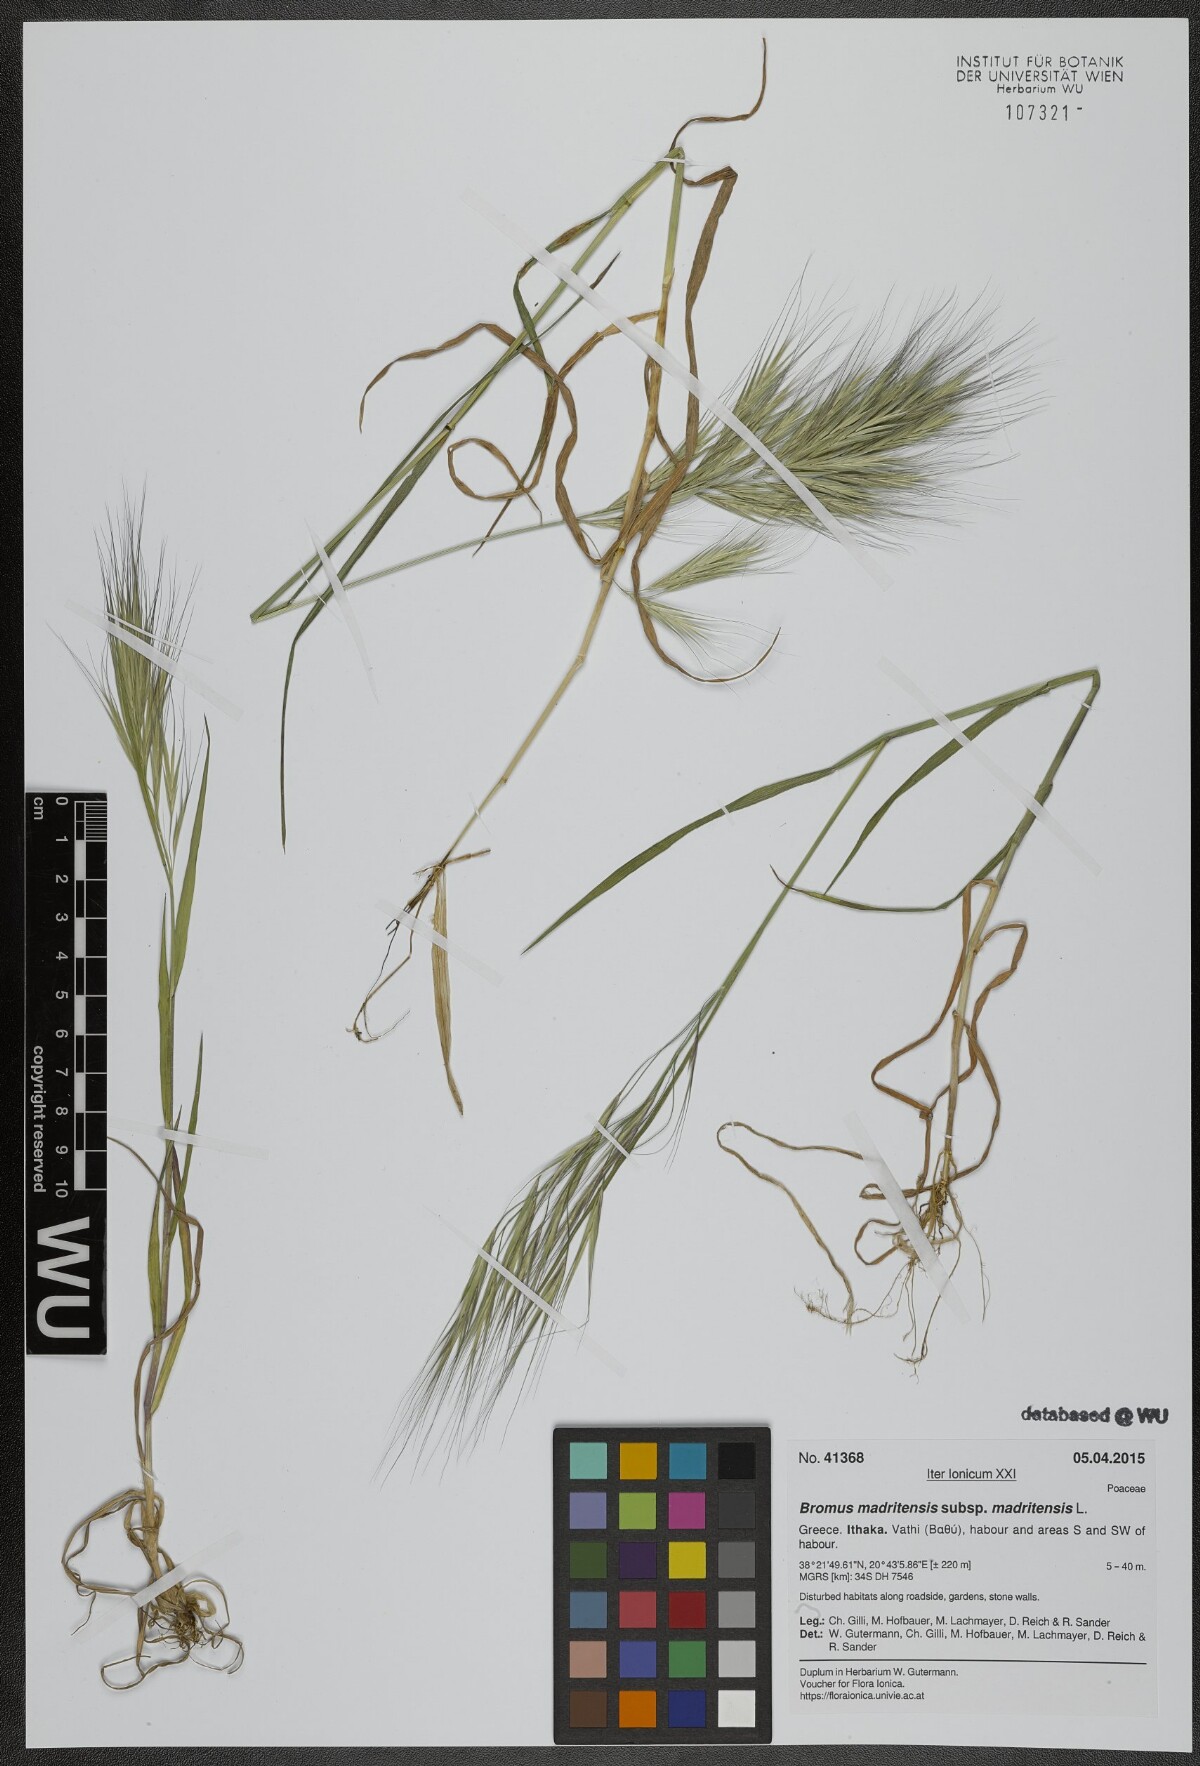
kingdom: Plantae
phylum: Tracheophyta
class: Liliopsida
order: Poales
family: Poaceae
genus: Bromus
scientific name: Bromus madritensis
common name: Compact brome
